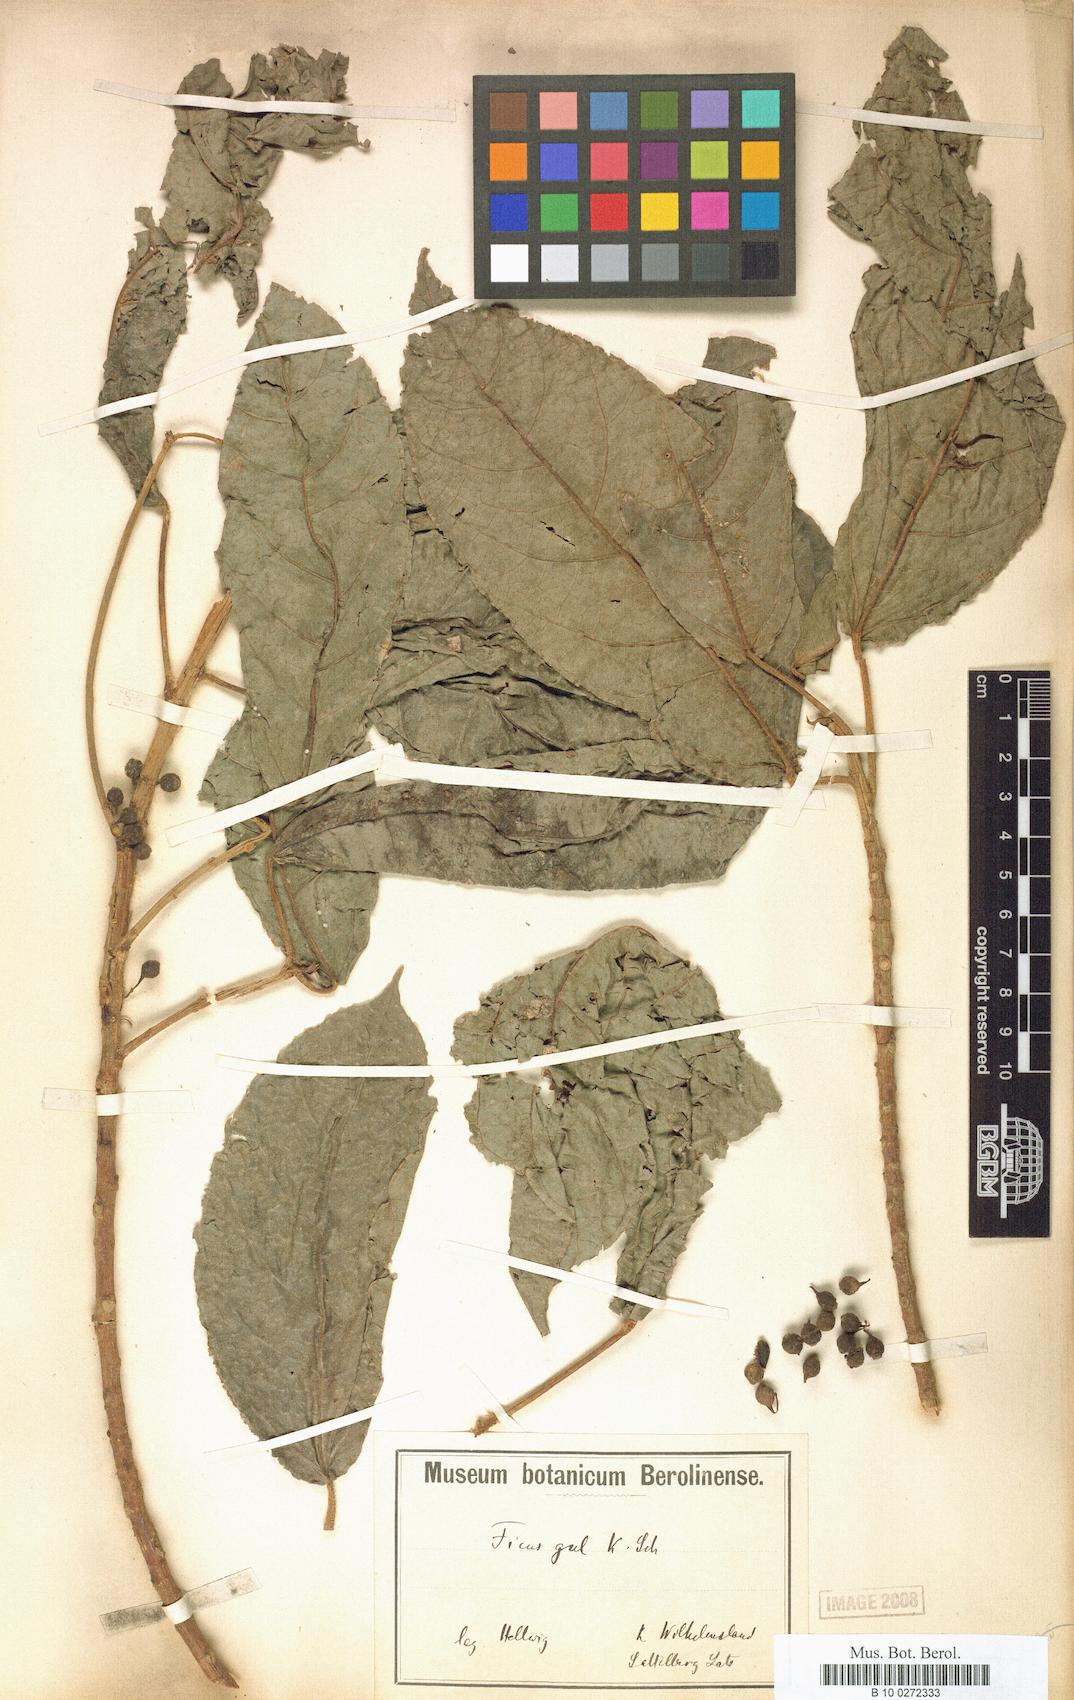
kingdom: Plantae
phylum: Tracheophyta
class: Magnoliopsida
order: Rosales
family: Moraceae
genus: Ficus
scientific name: Ficus gul
